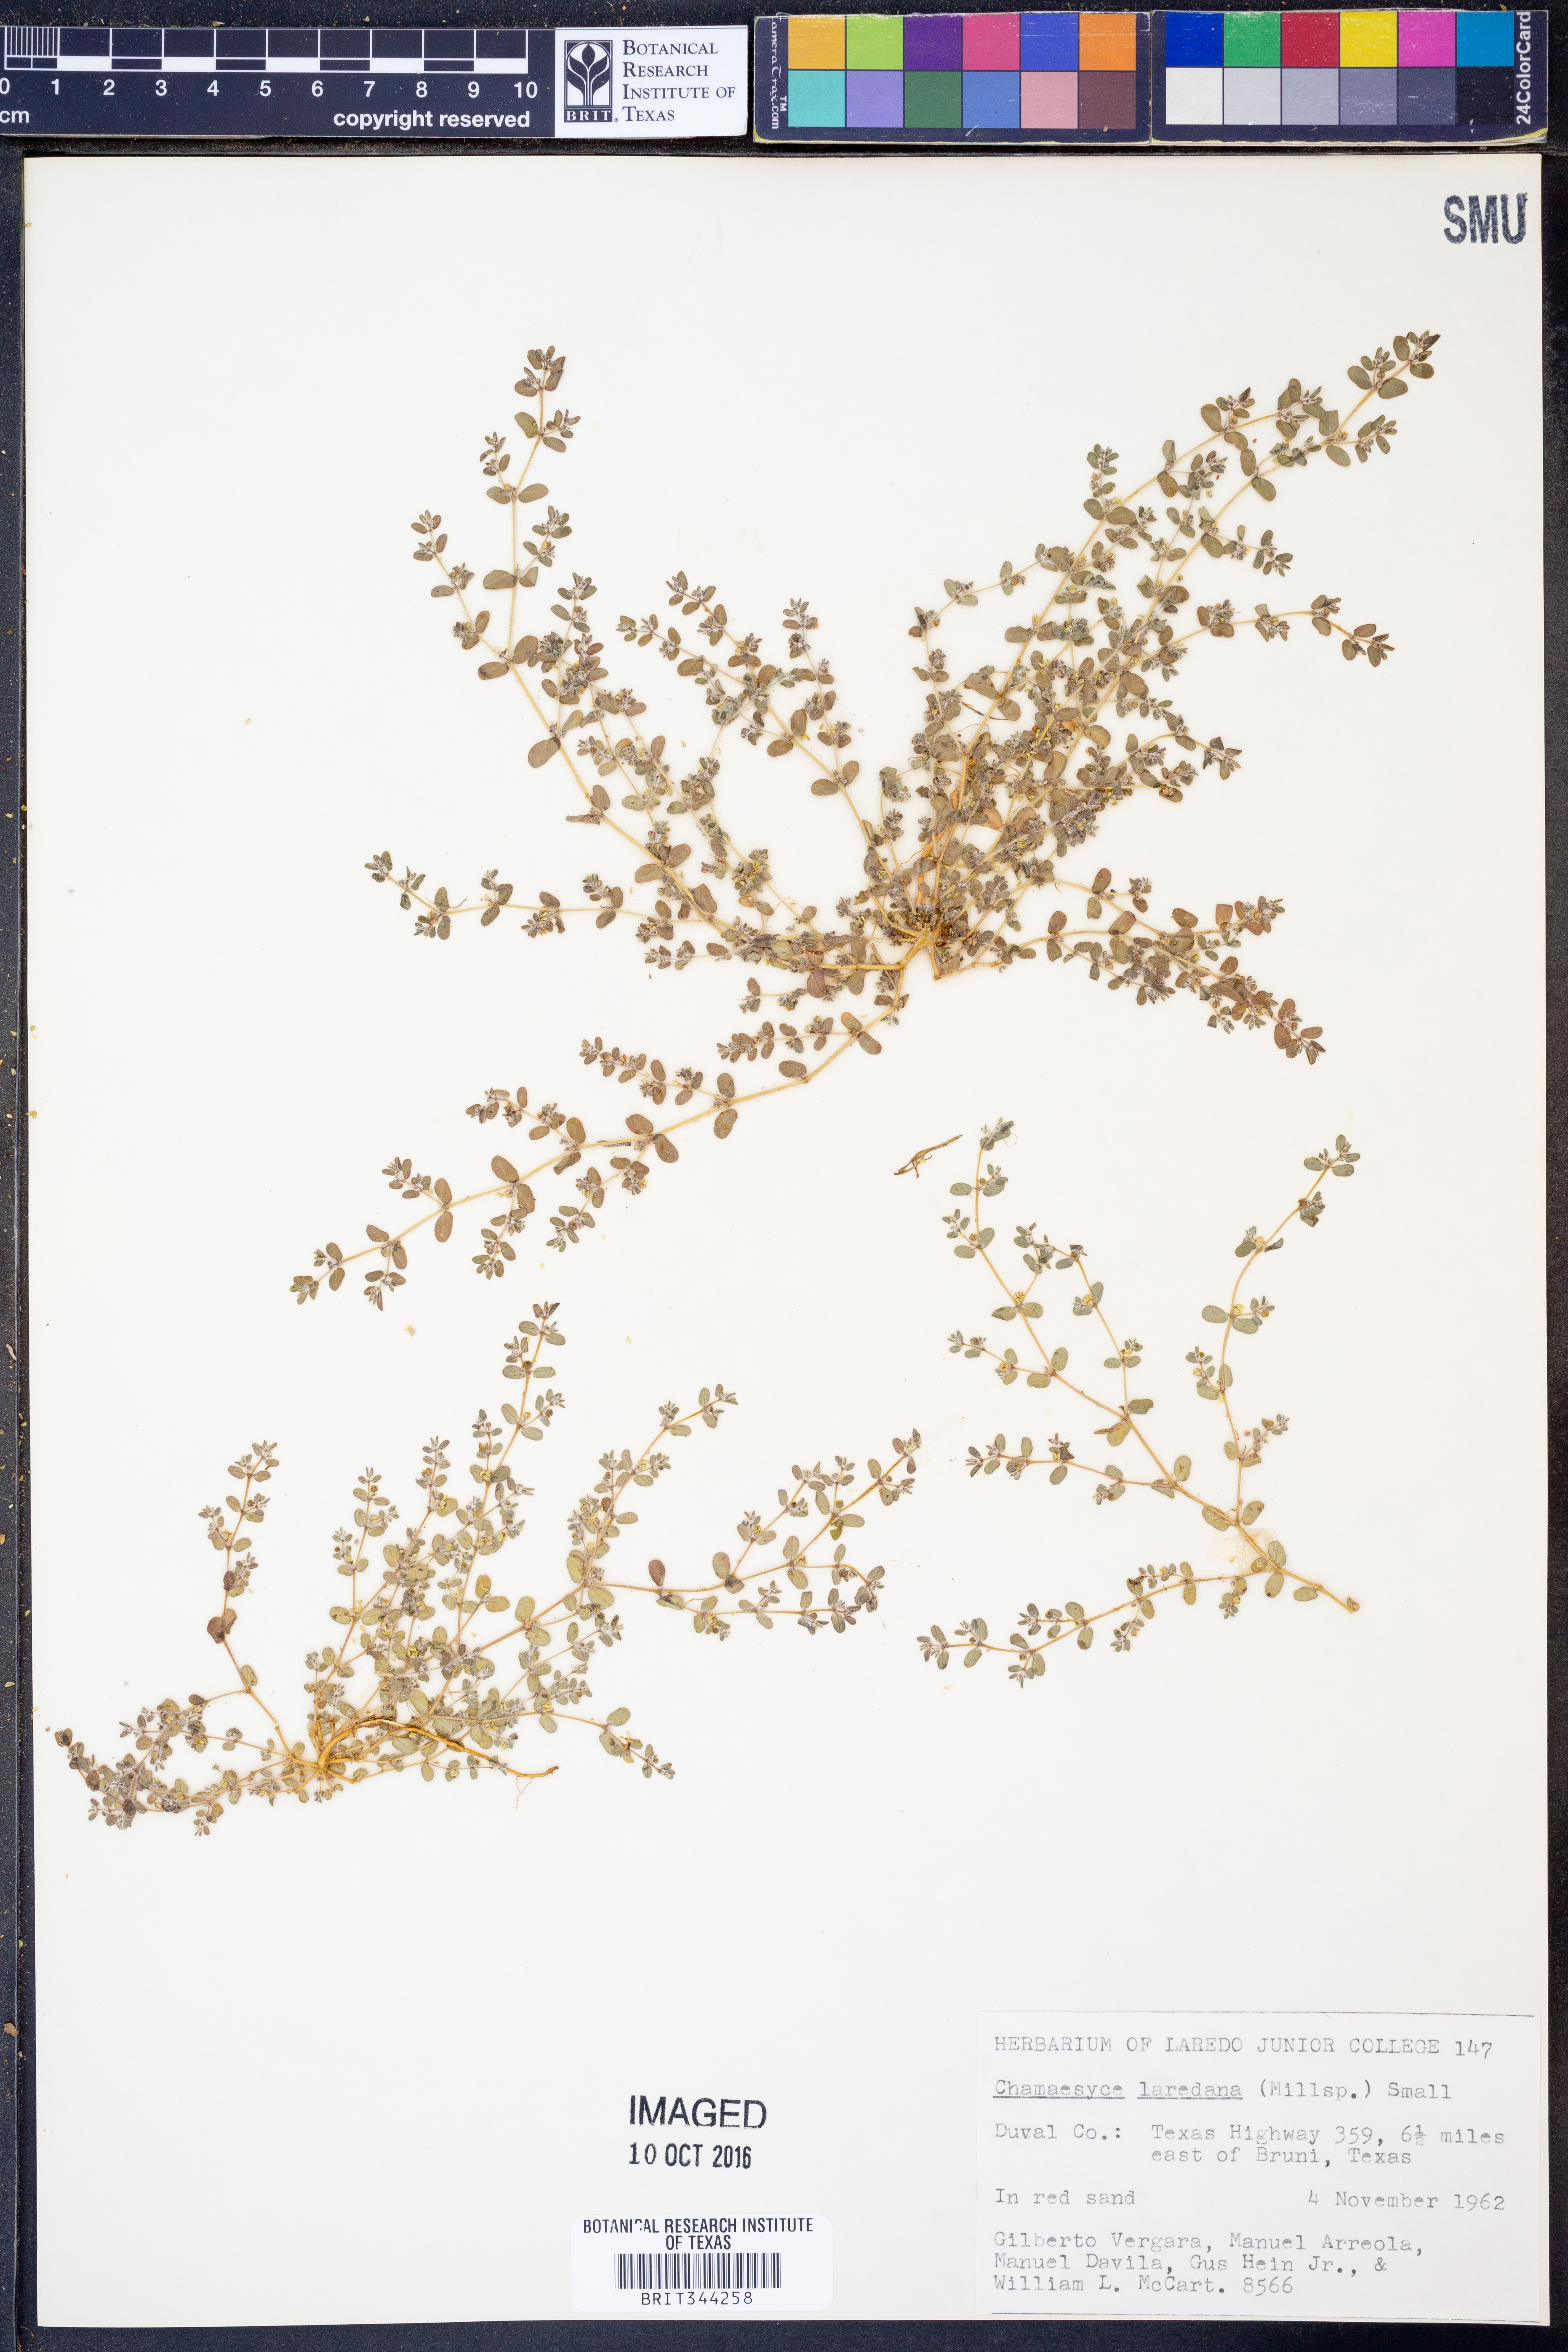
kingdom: Plantae
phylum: Tracheophyta
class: Magnoliopsida
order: Malpighiales
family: Euphorbiaceae
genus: Euphorbia
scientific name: Euphorbia laredana
